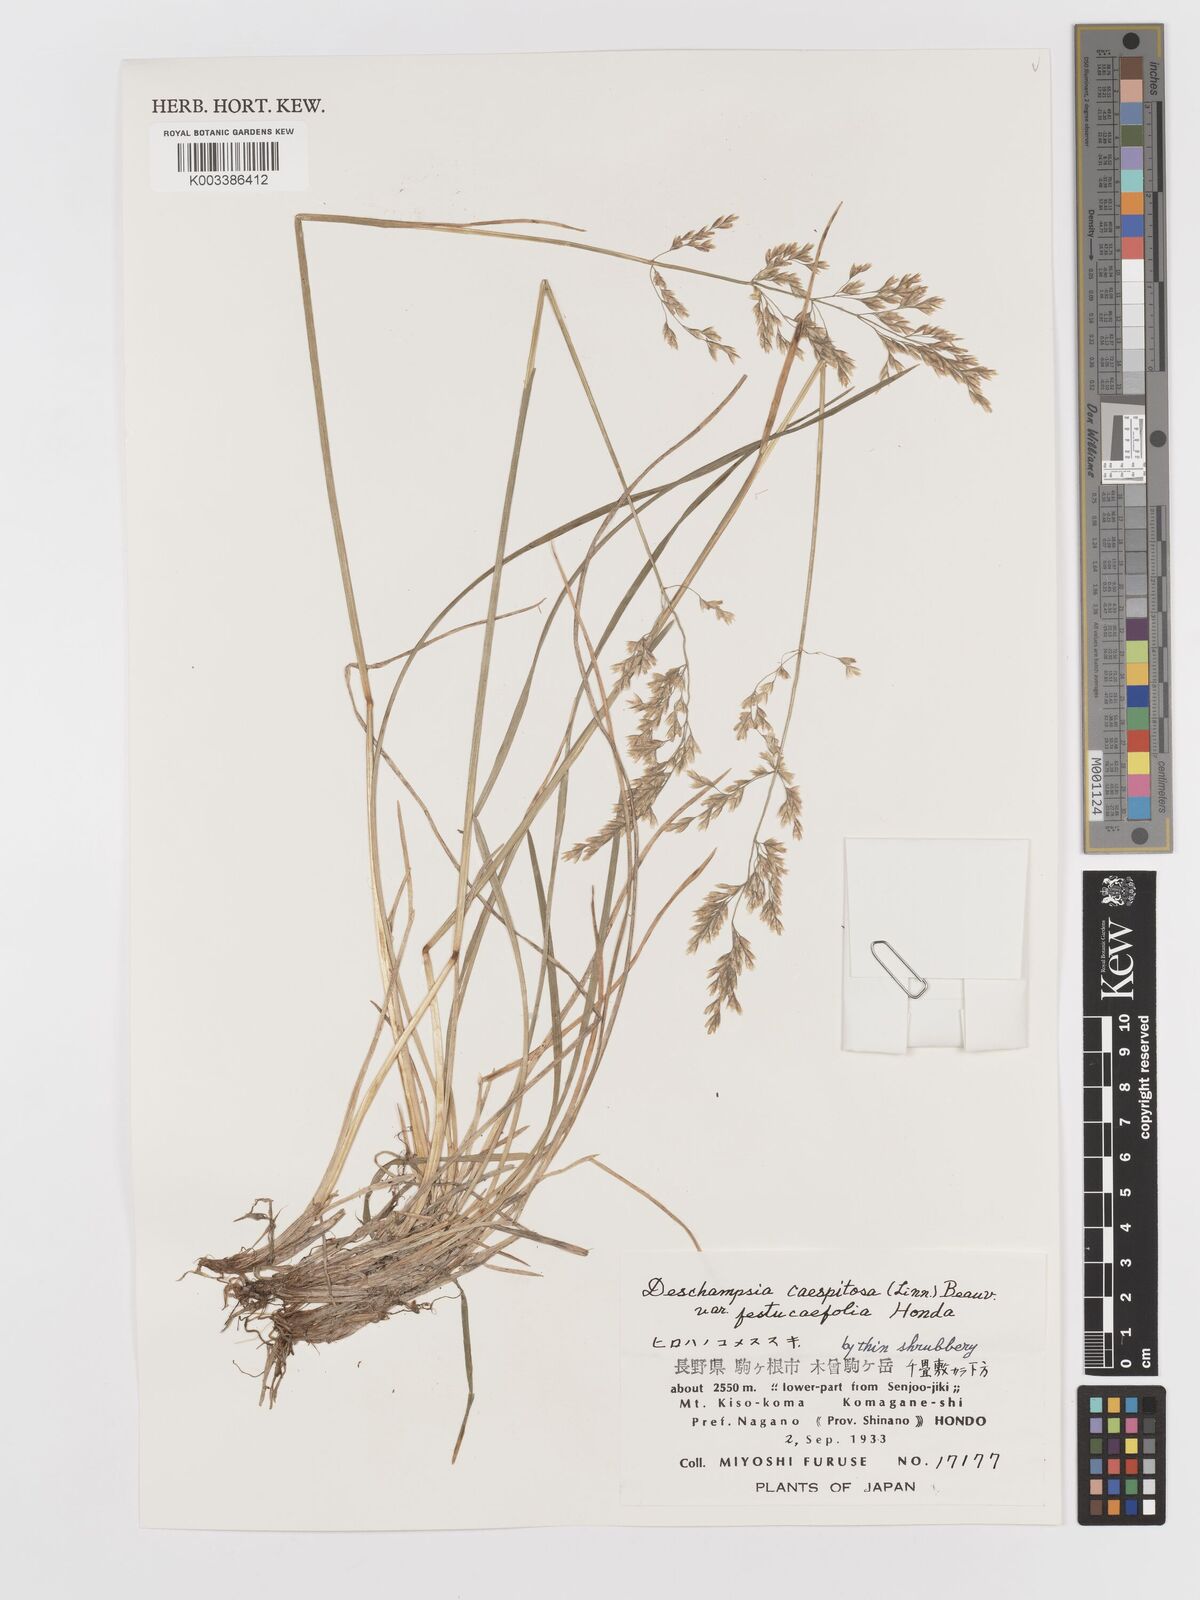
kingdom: Plantae
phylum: Tracheophyta
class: Liliopsida
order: Poales
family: Poaceae
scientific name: Poaceae
